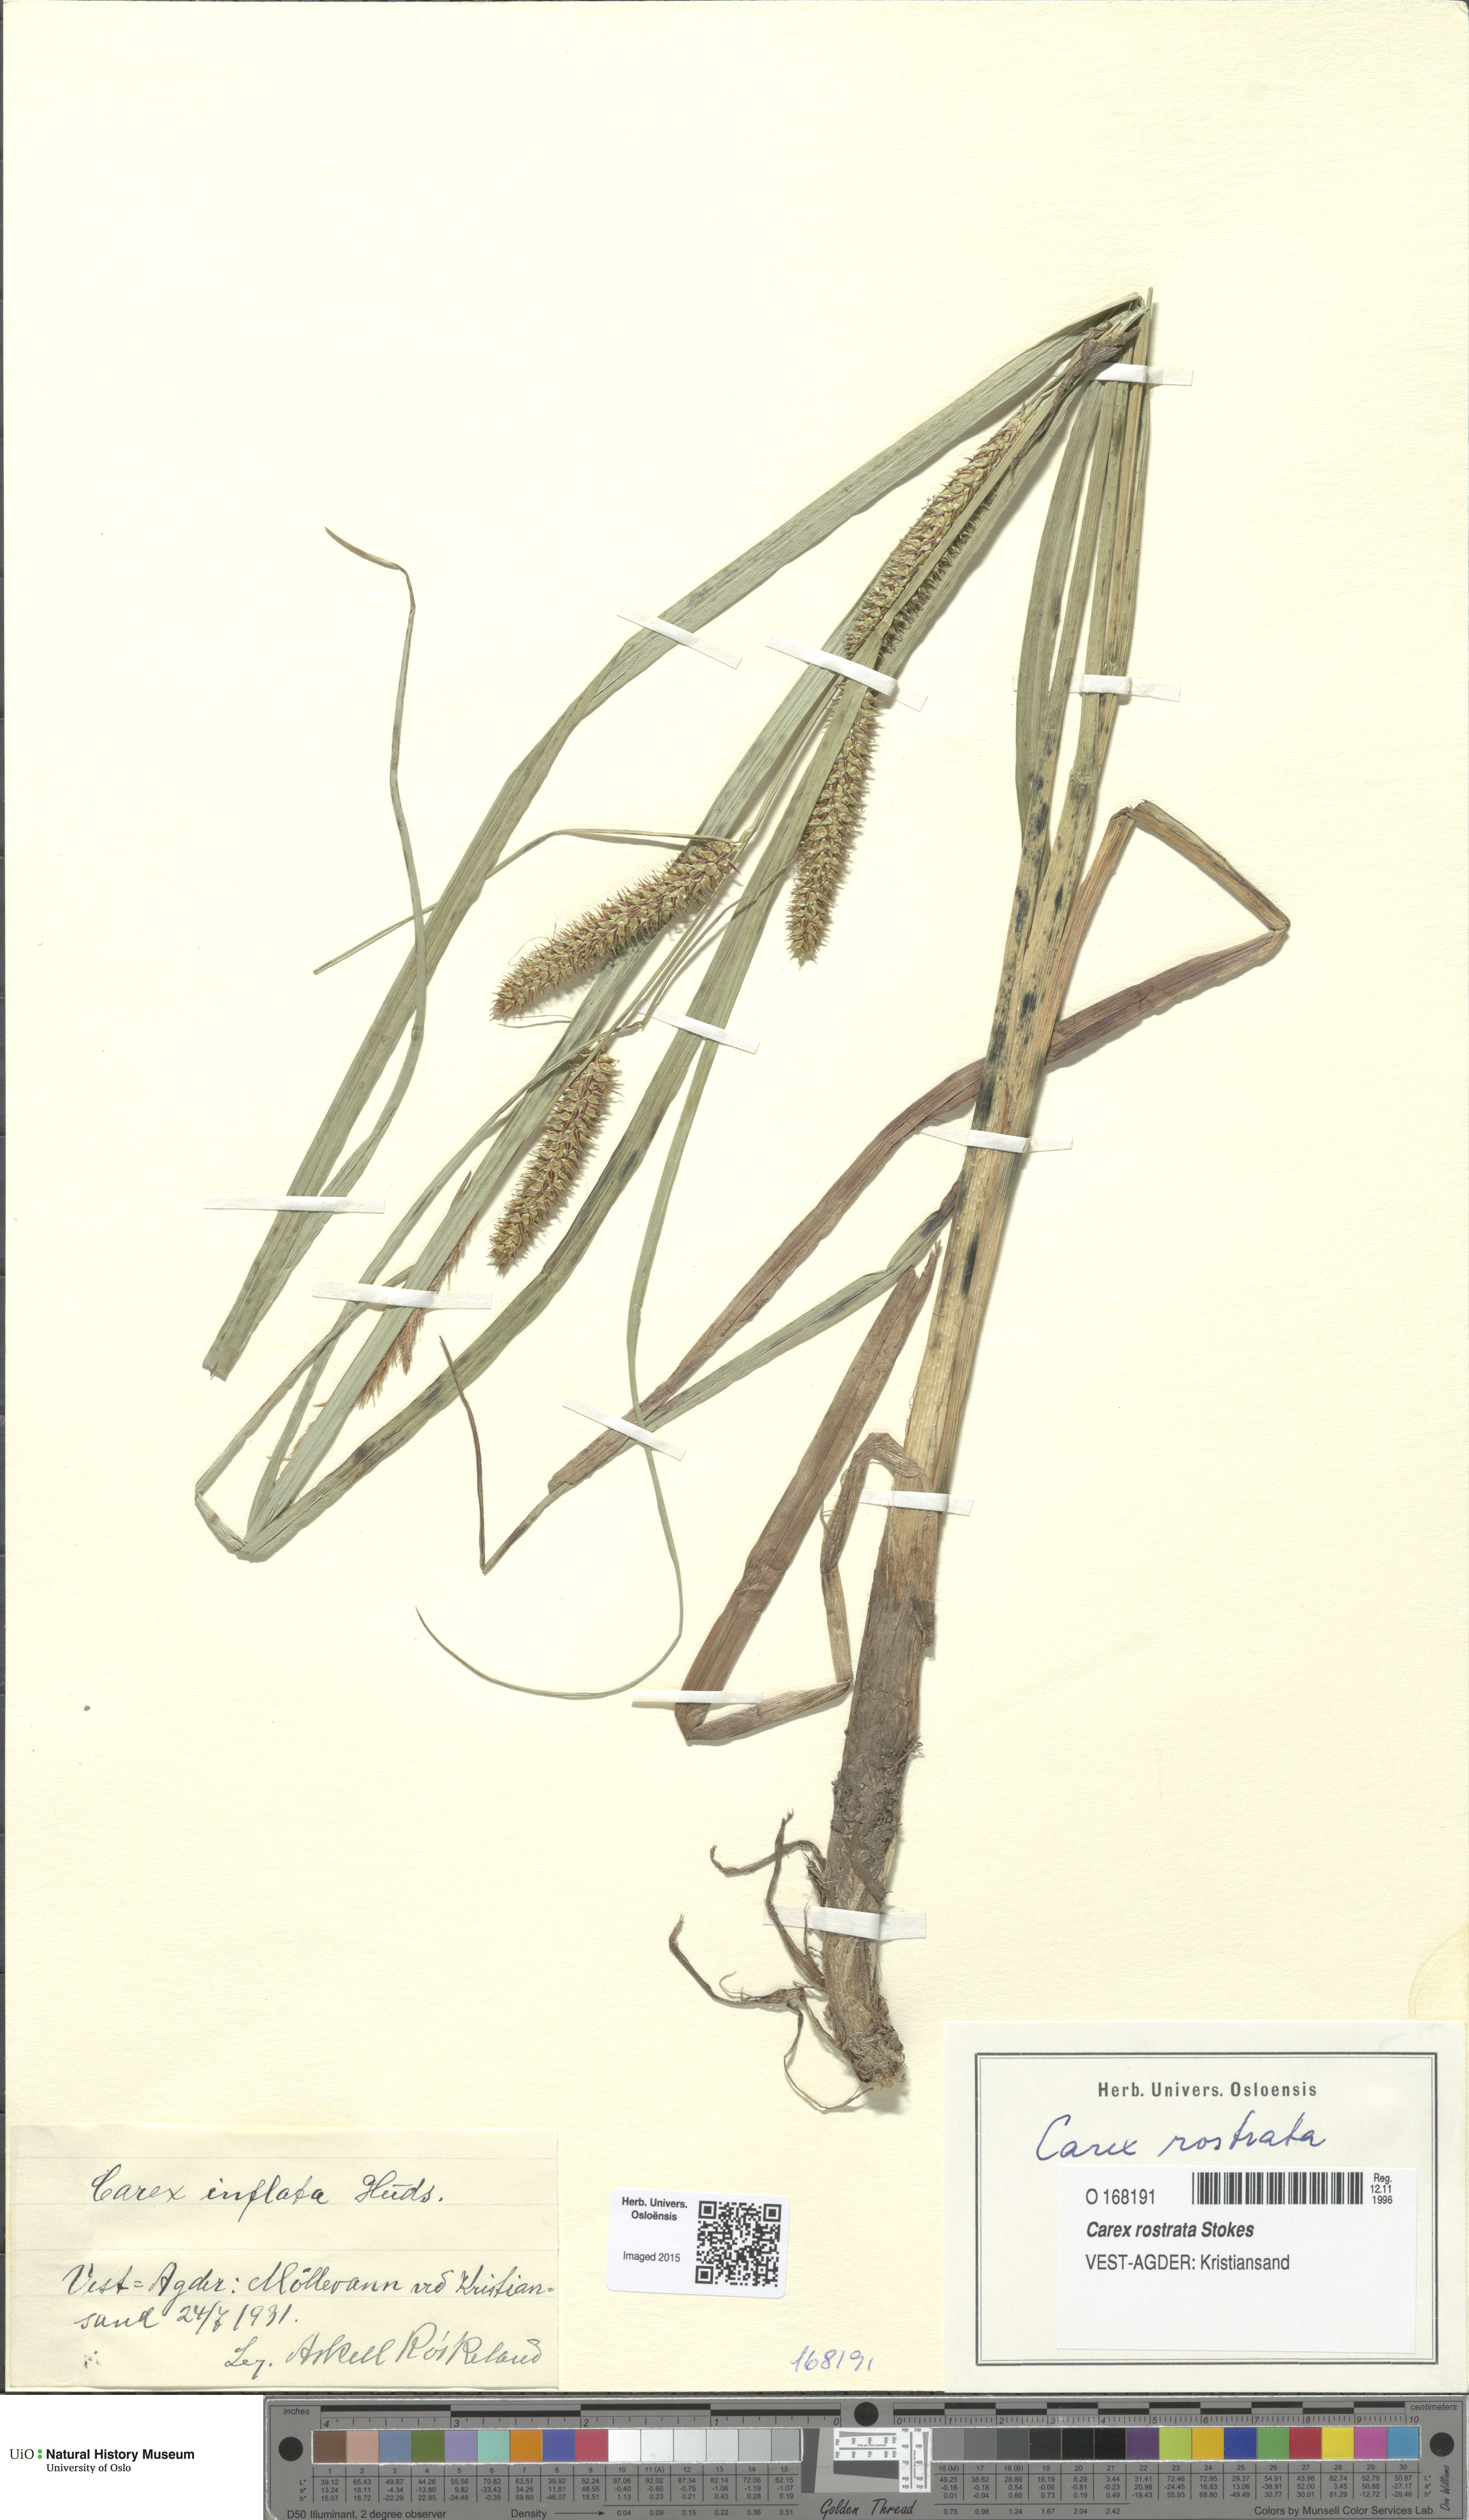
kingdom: Plantae
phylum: Tracheophyta
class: Liliopsida
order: Poales
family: Cyperaceae
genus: Carex
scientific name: Carex rostrata
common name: Bottle sedge
